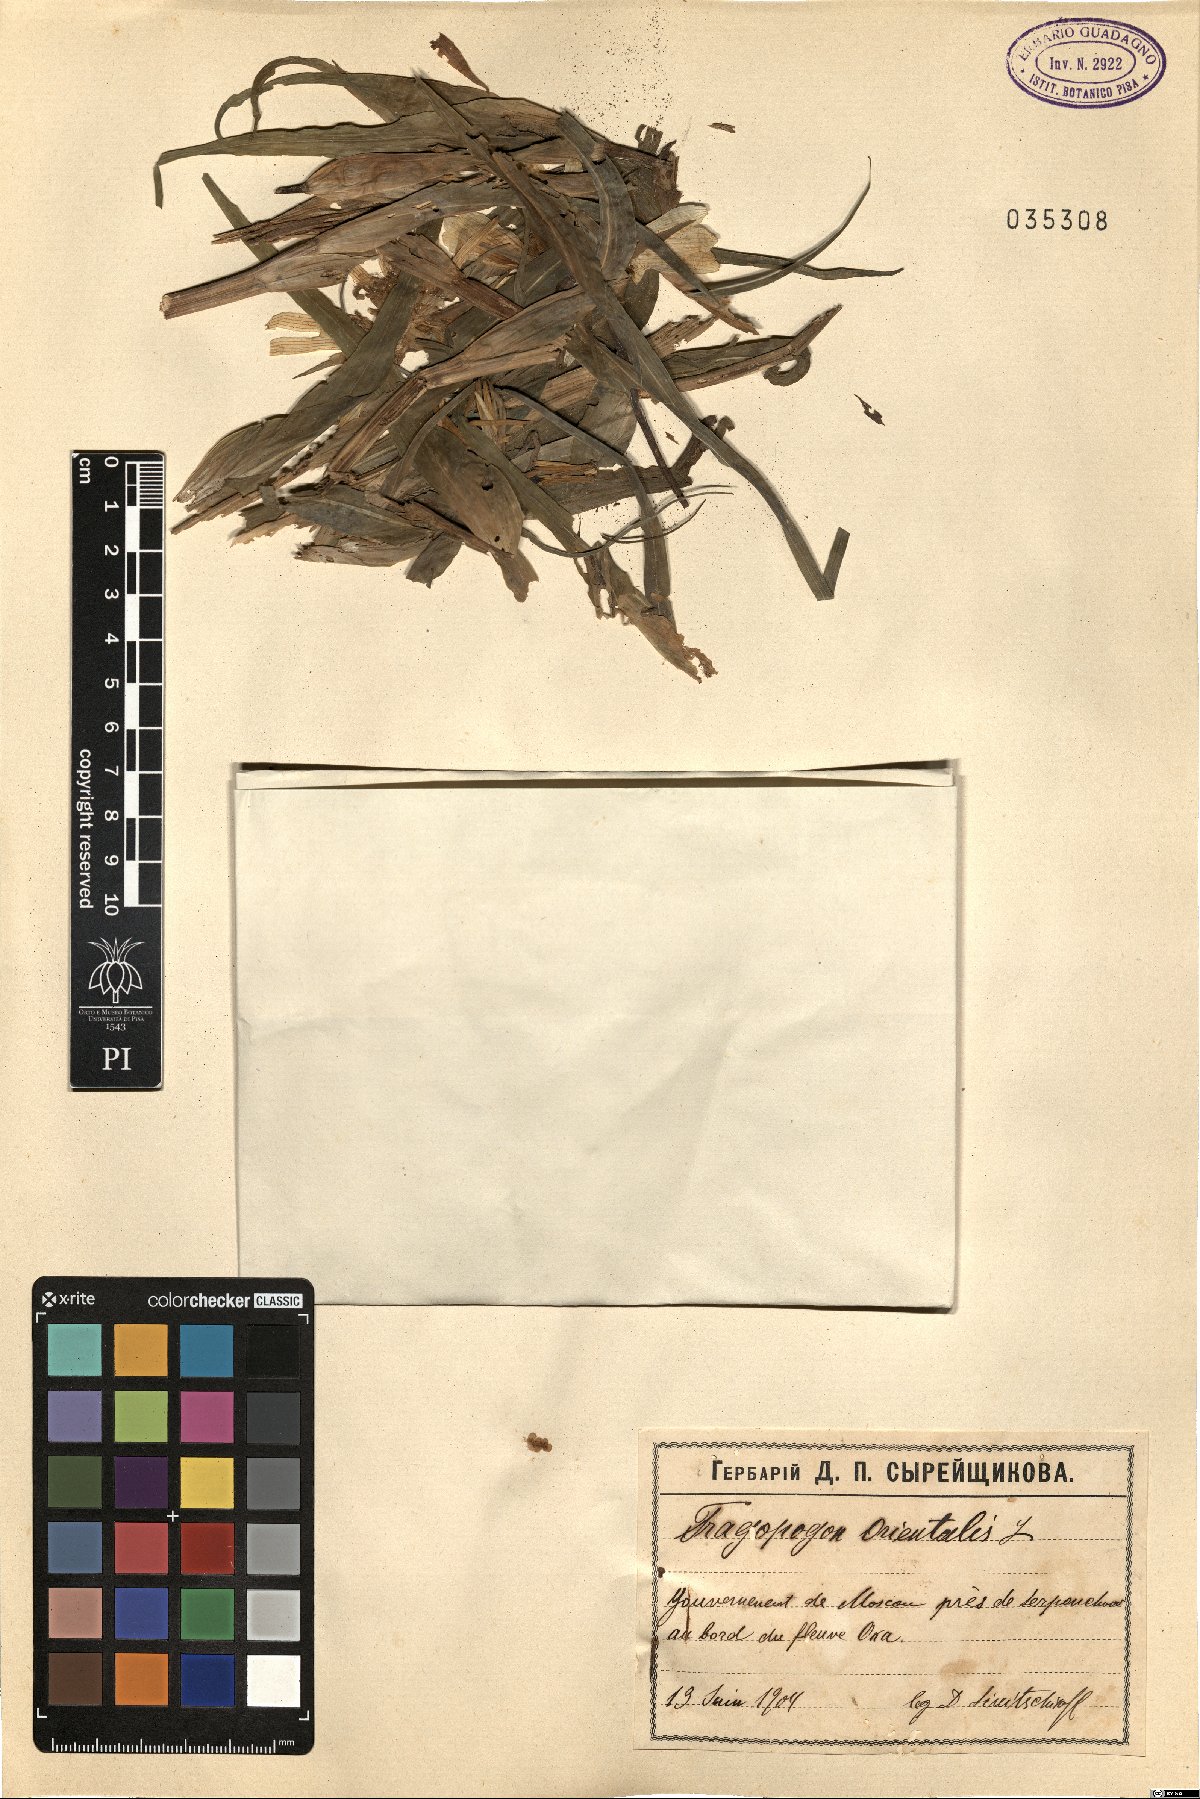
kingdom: Plantae
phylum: Tracheophyta
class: Magnoliopsida
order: Asterales
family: Asteraceae
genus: Tragopogon
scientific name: Tragopogon orientalis
